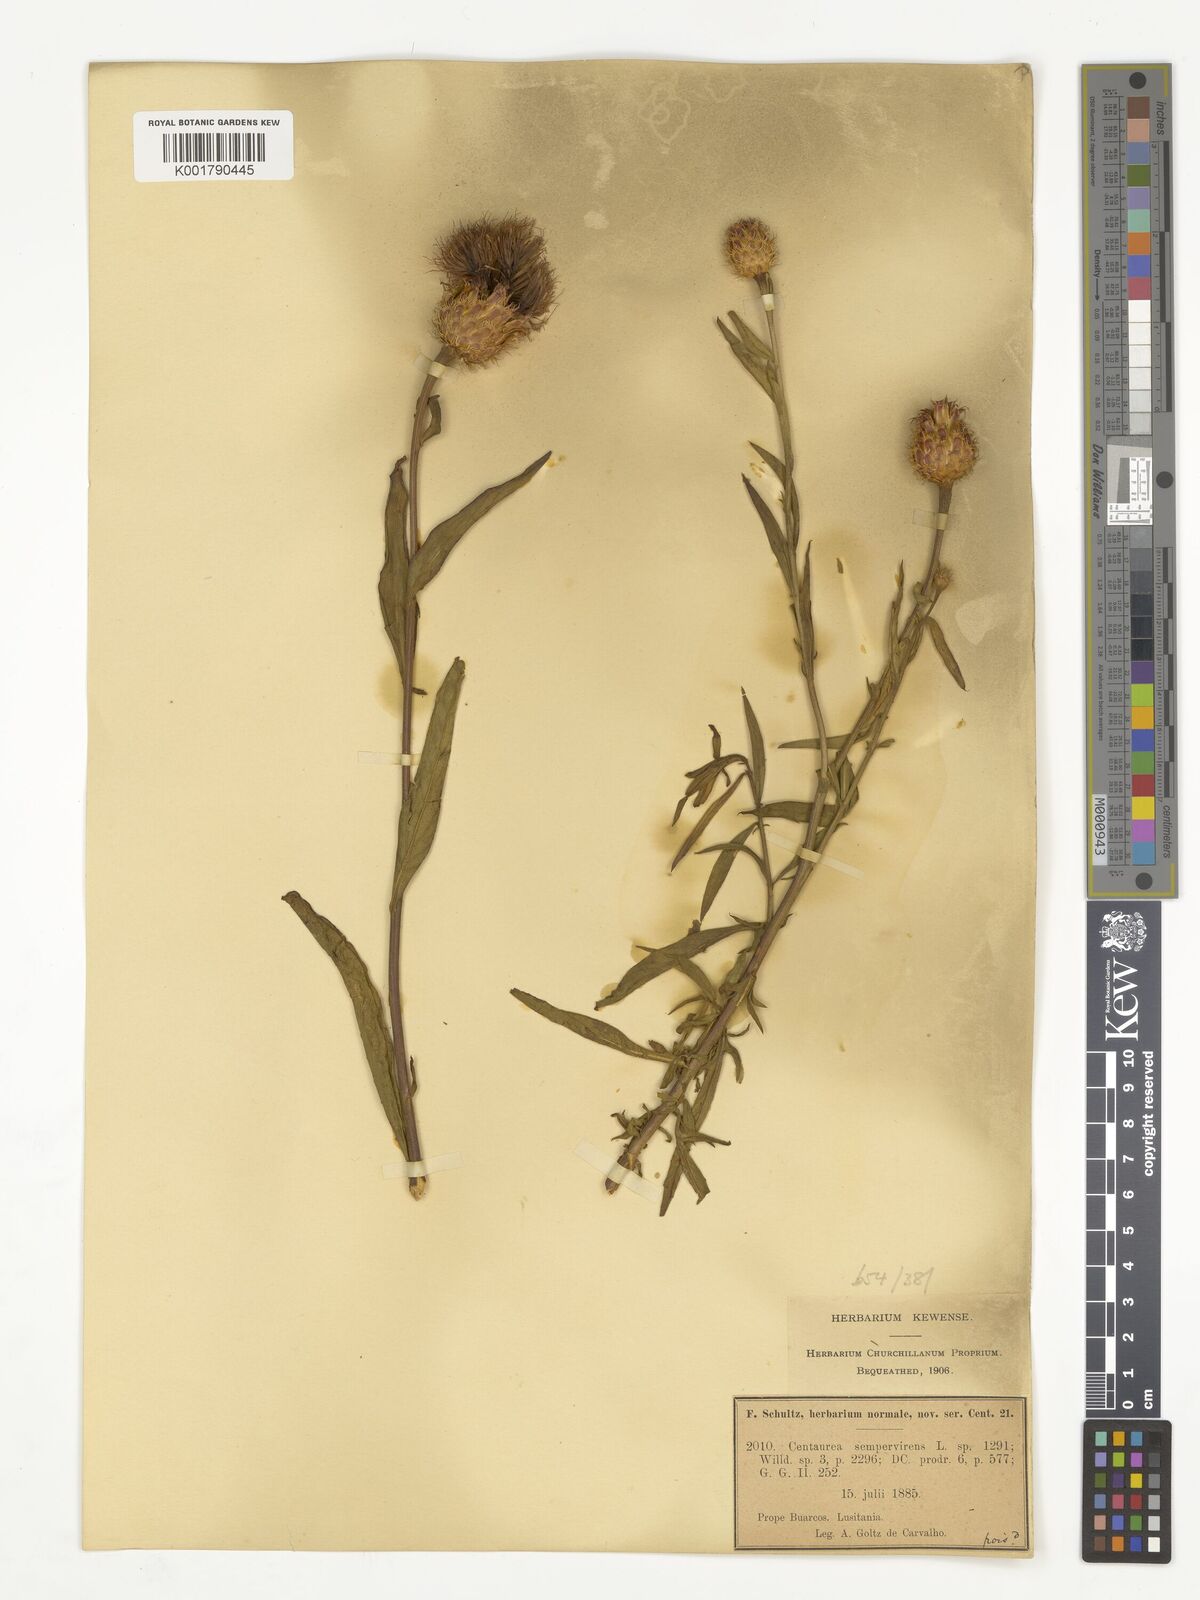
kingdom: Plantae
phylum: Tracheophyta
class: Magnoliopsida
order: Asterales
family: Asteraceae
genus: Cheirolophus
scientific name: Cheirolophus sempervirens
